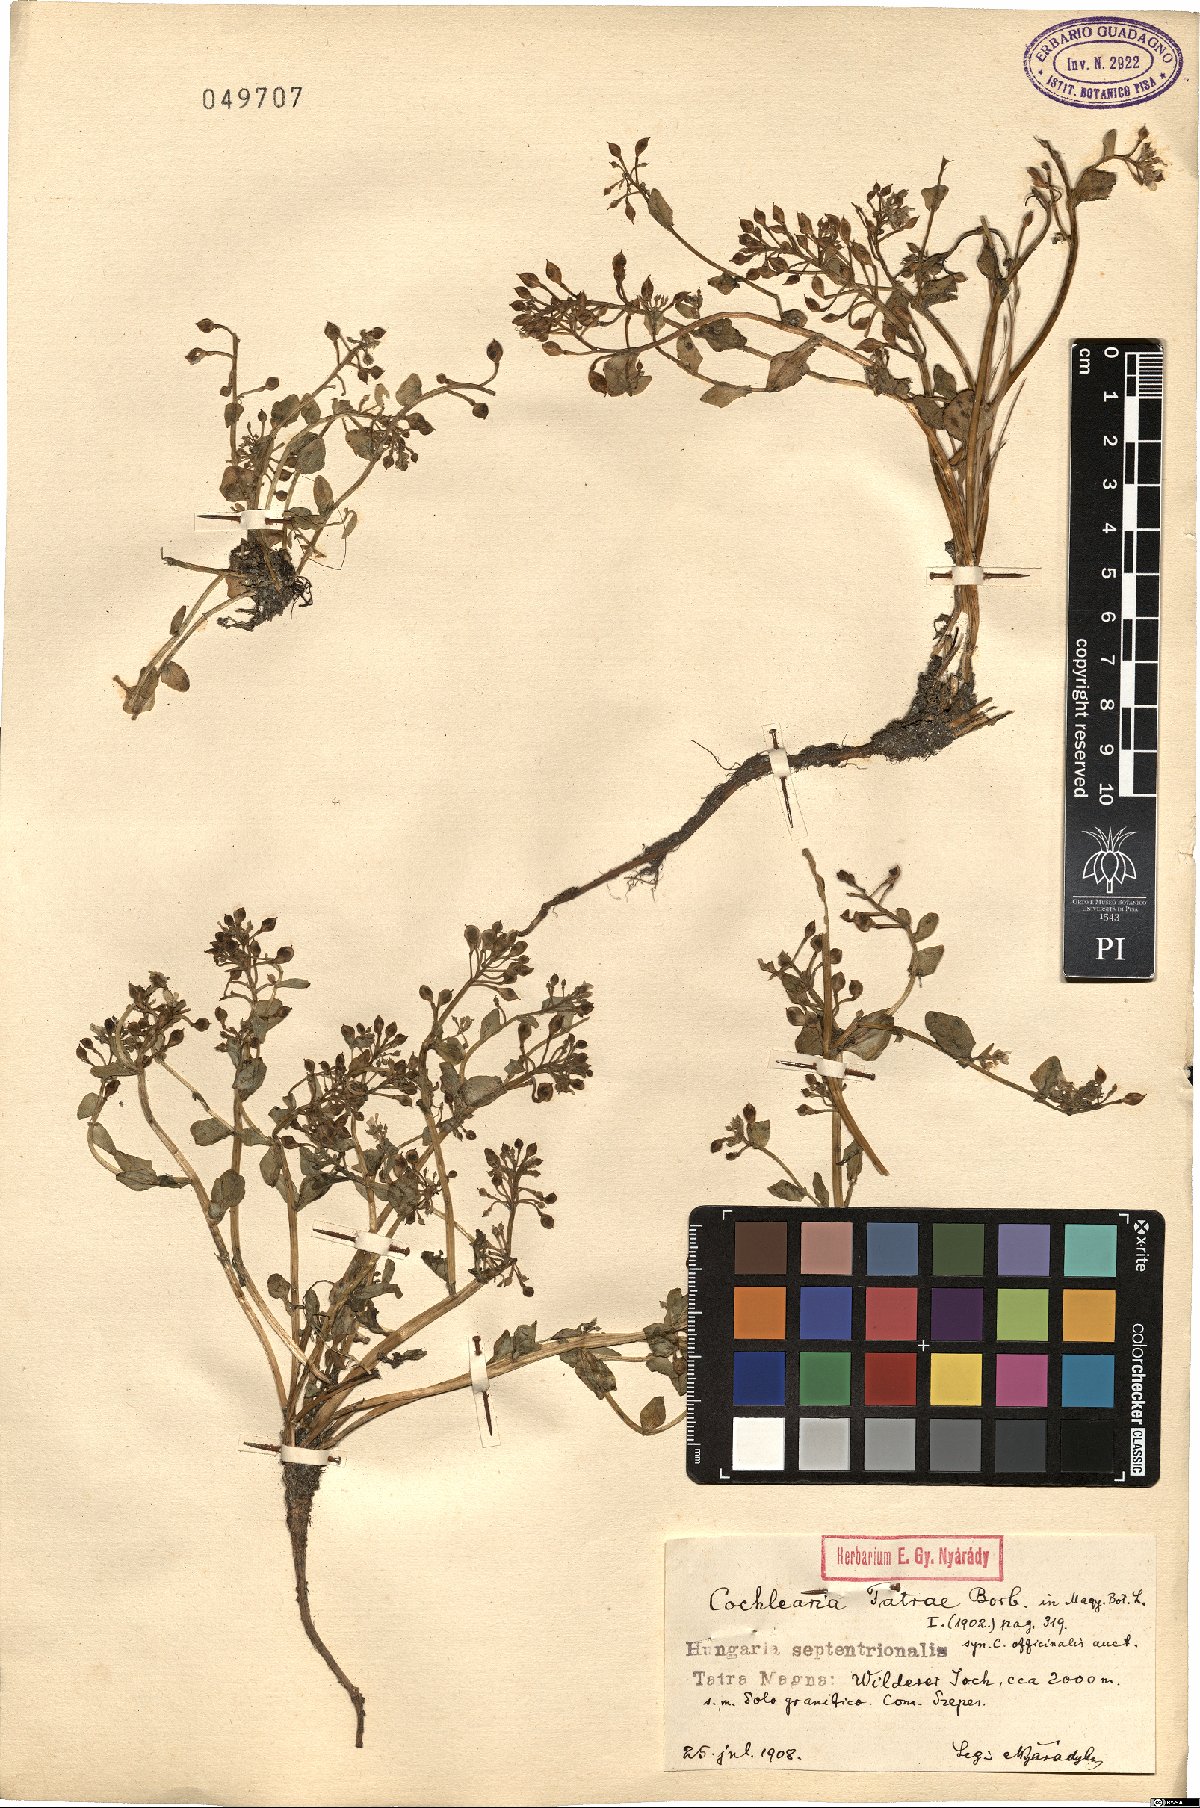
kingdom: Plantae
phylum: Tracheophyta
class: Magnoliopsida
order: Brassicales
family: Brassicaceae
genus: Cochlearia
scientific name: Cochlearia tatrae
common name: Tatra scurvy-grass
